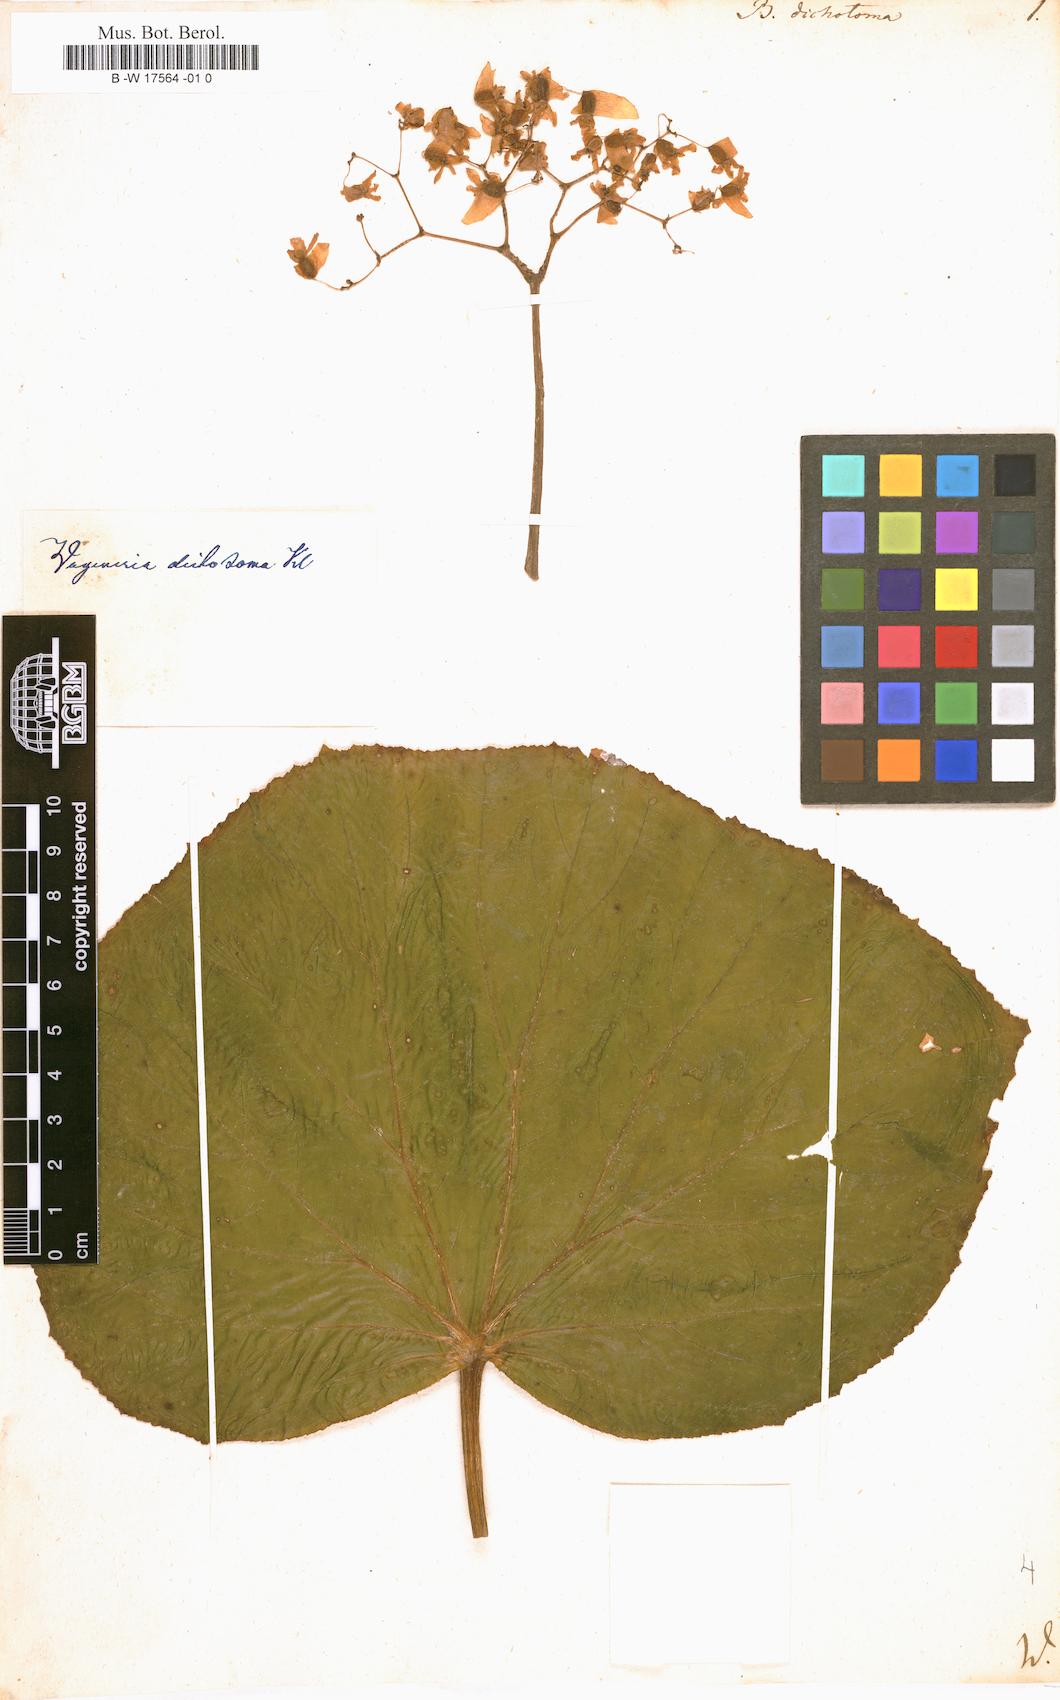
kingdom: Plantae
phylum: Tracheophyta
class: Magnoliopsida
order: Cucurbitales
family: Begoniaceae
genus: Begonia
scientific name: Begonia dichotoma
